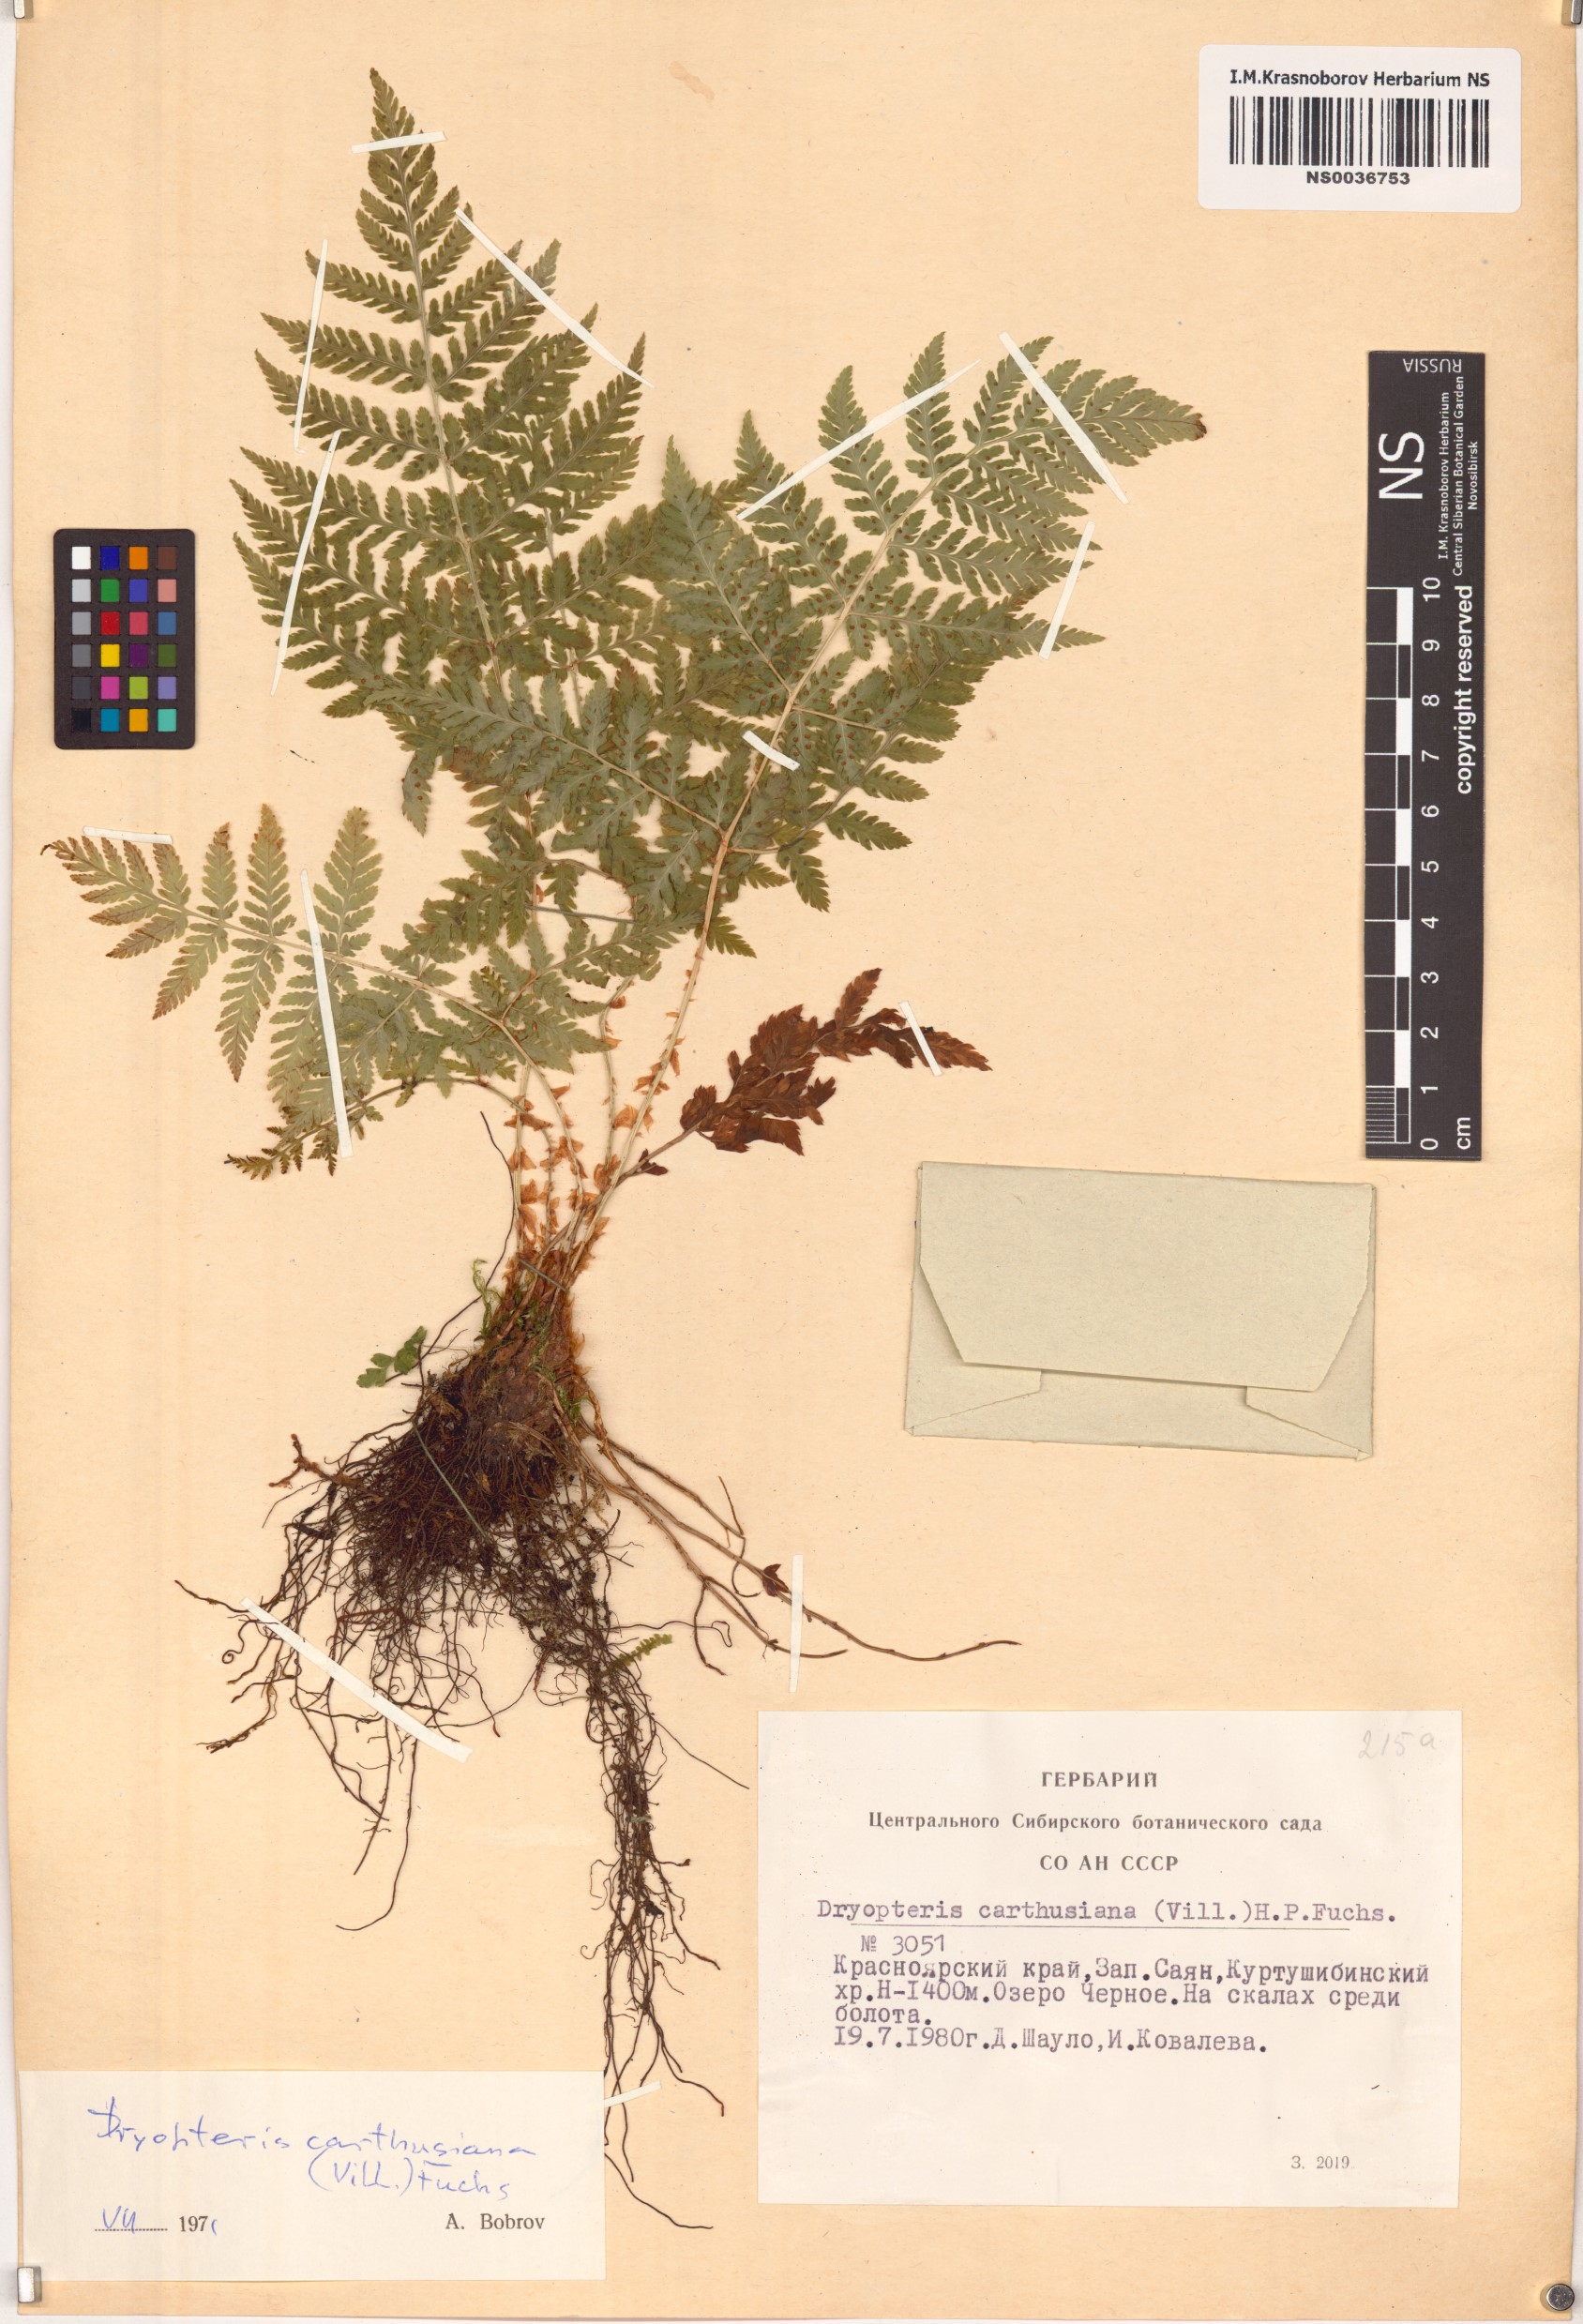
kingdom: Plantae
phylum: Tracheophyta
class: Polypodiopsida
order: Polypodiales
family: Dryopteridaceae
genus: Dryopteris
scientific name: Dryopteris carthusiana
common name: Narrow buckler-fern
